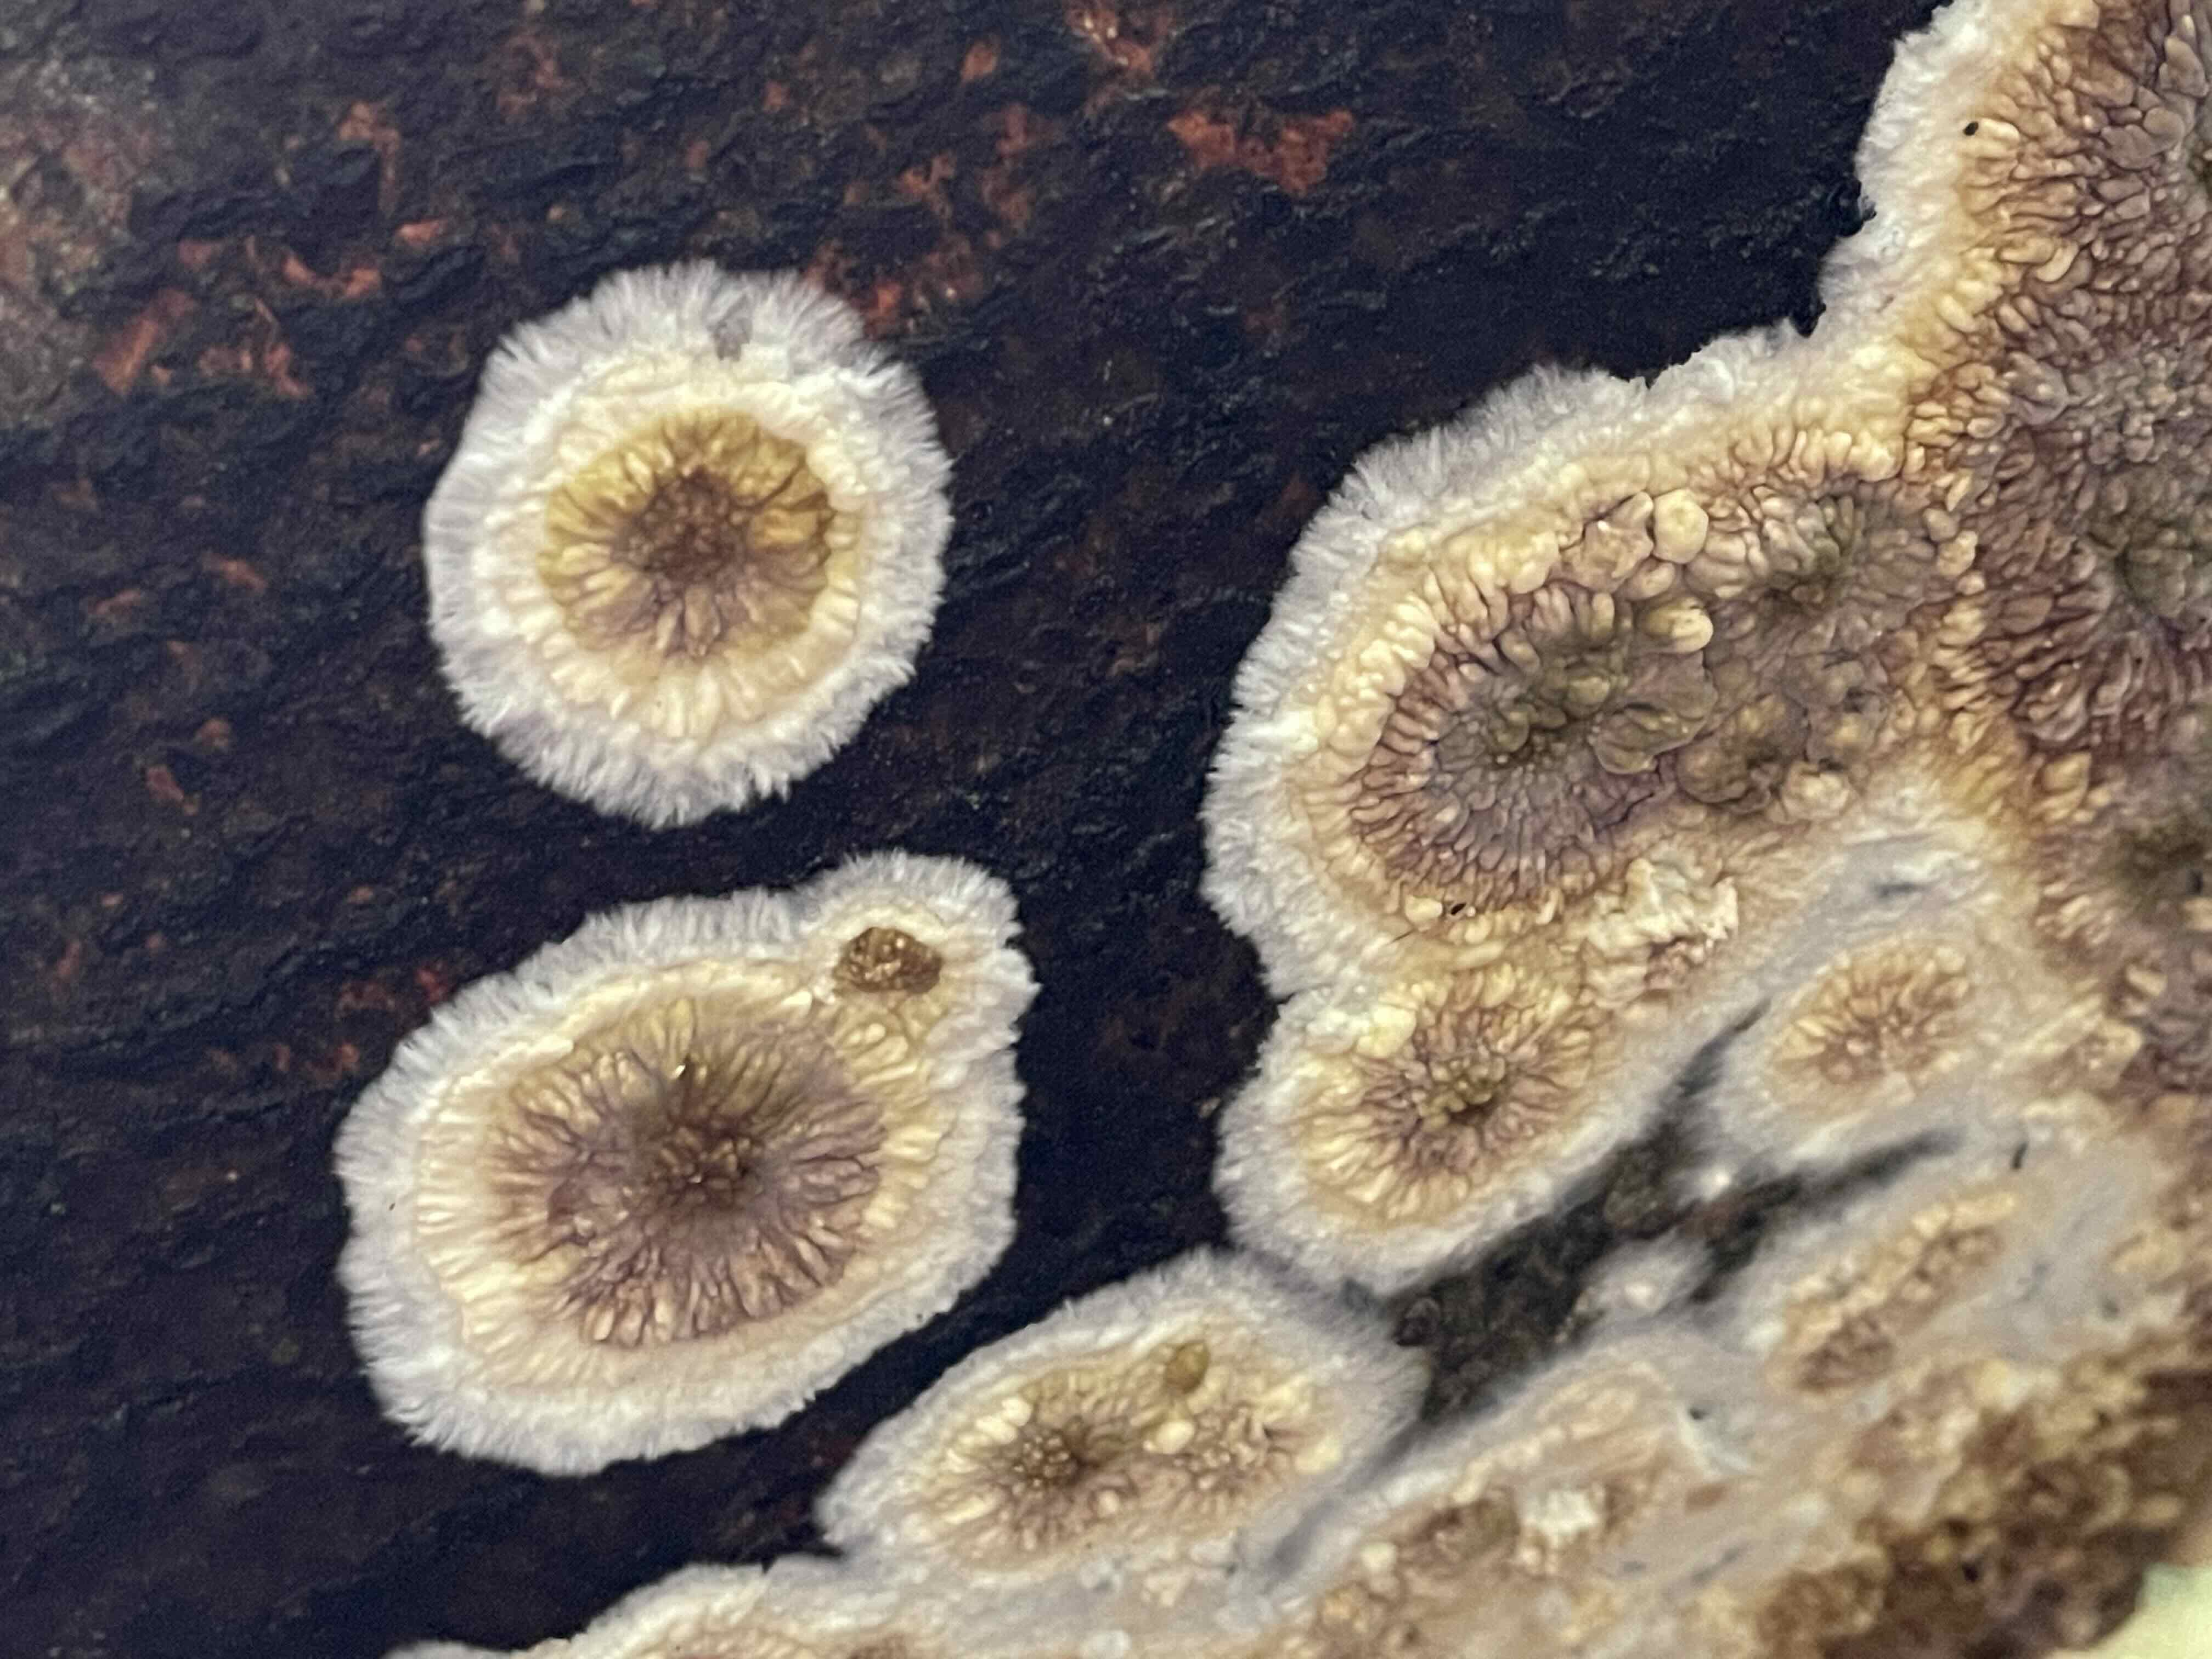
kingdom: Fungi
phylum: Basidiomycota
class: Agaricomycetes
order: Boletales
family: Coniophoraceae
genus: Coniophora
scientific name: Coniophora puteana
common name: gul tømmersvamp
